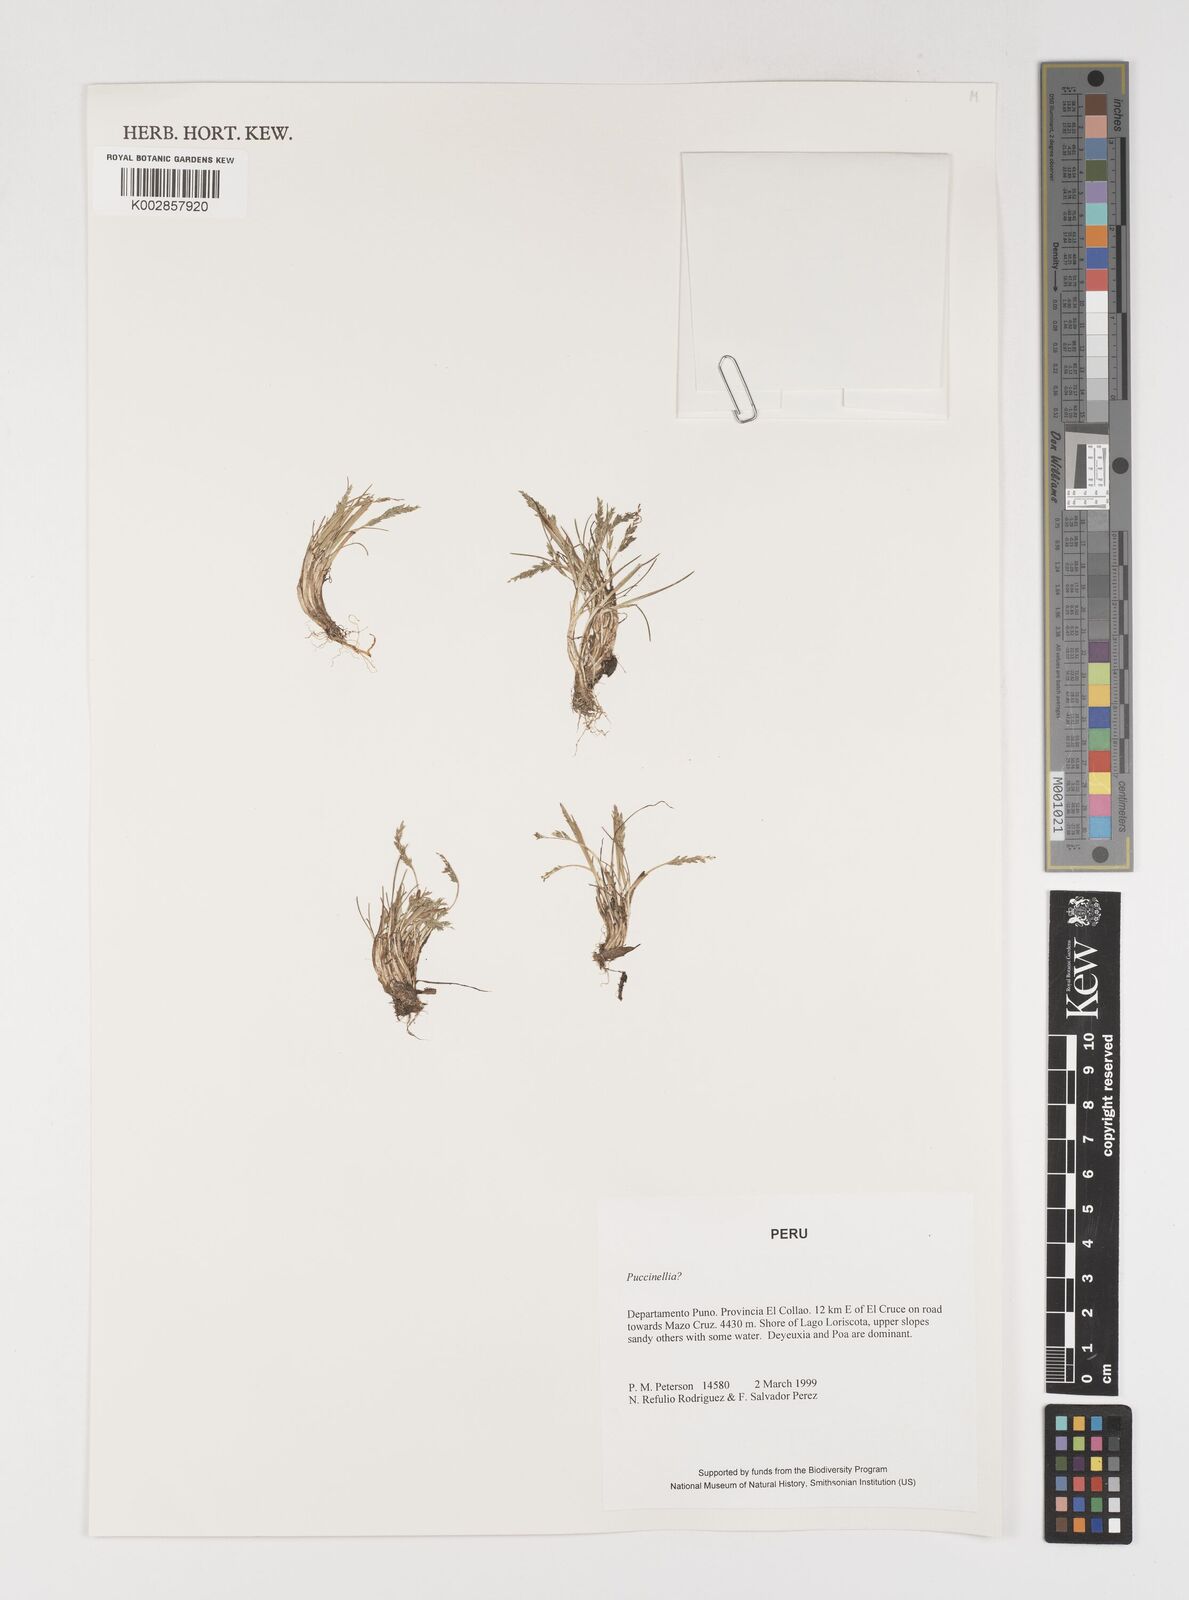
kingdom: Plantae
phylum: Tracheophyta
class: Liliopsida
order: Poales
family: Poaceae
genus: Puccinellia
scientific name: Puccinellia frigida
